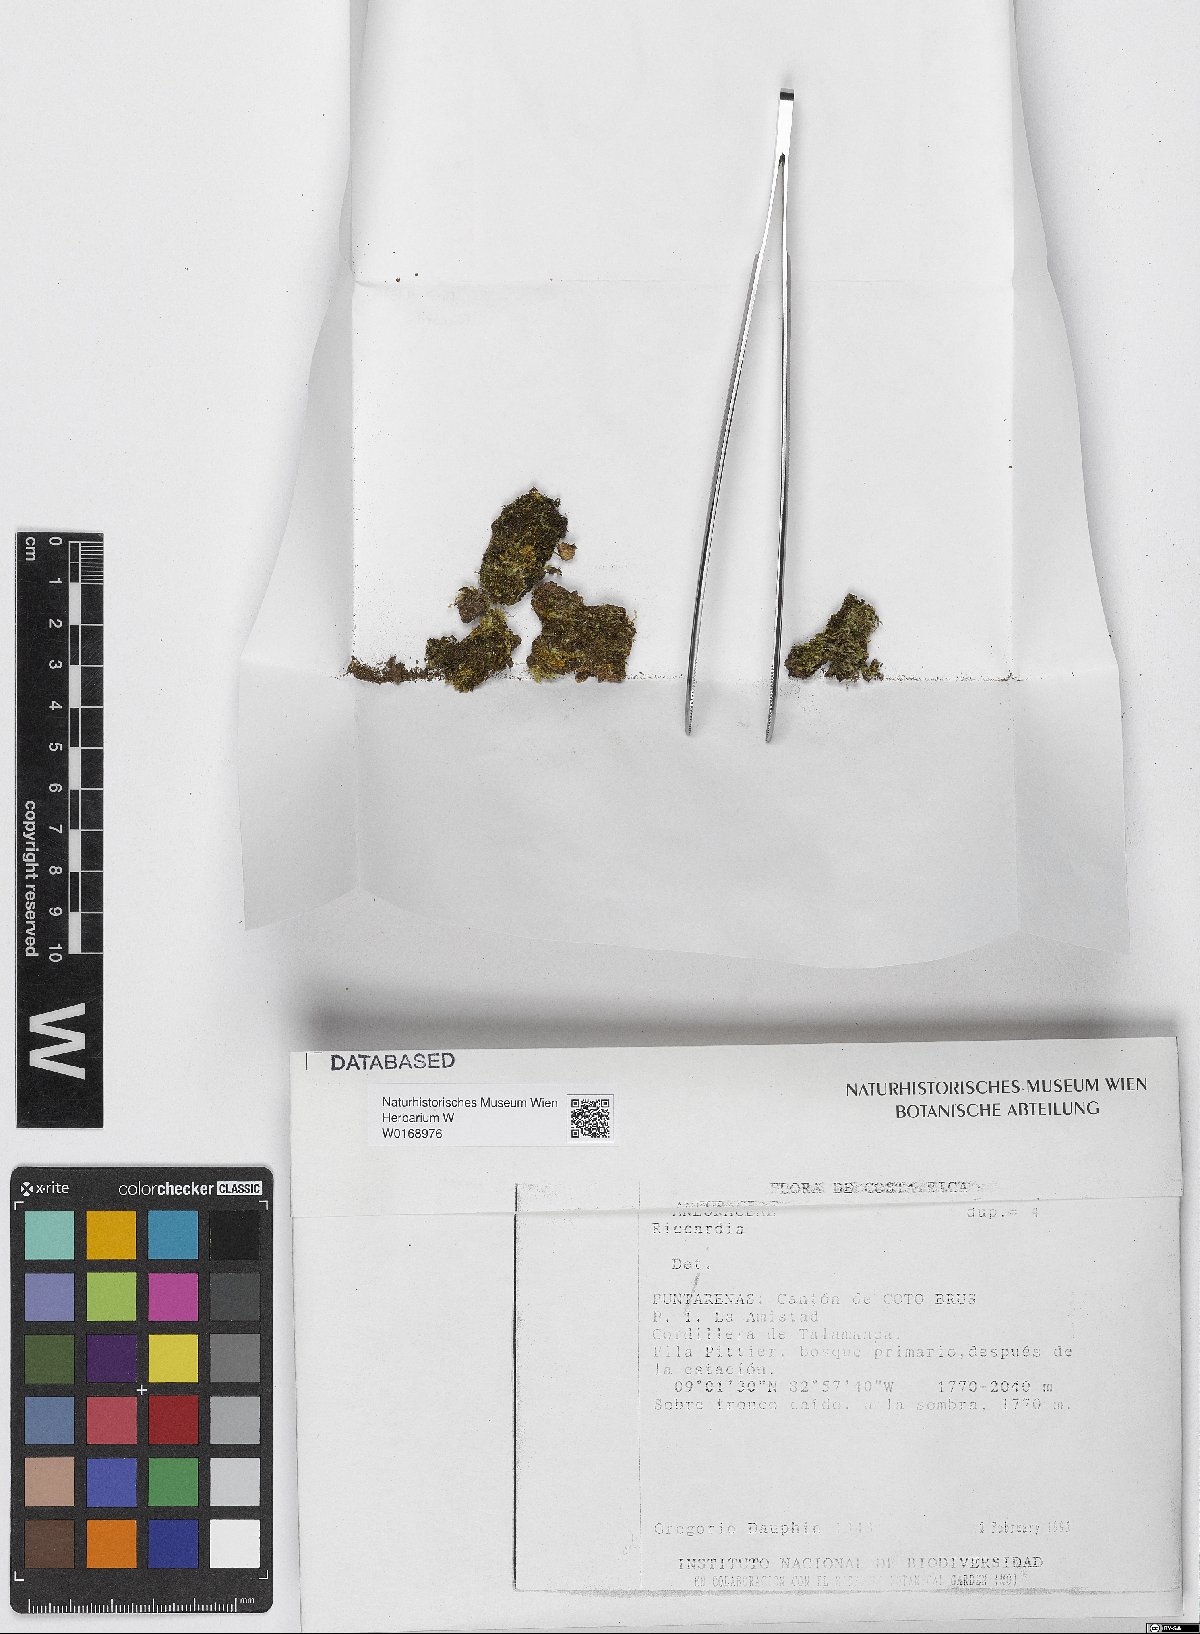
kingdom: Plantae
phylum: Marchantiophyta
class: Jungermanniopsida
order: Metzgeriales
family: Aneuraceae
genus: Riccardia
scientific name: Riccardia
